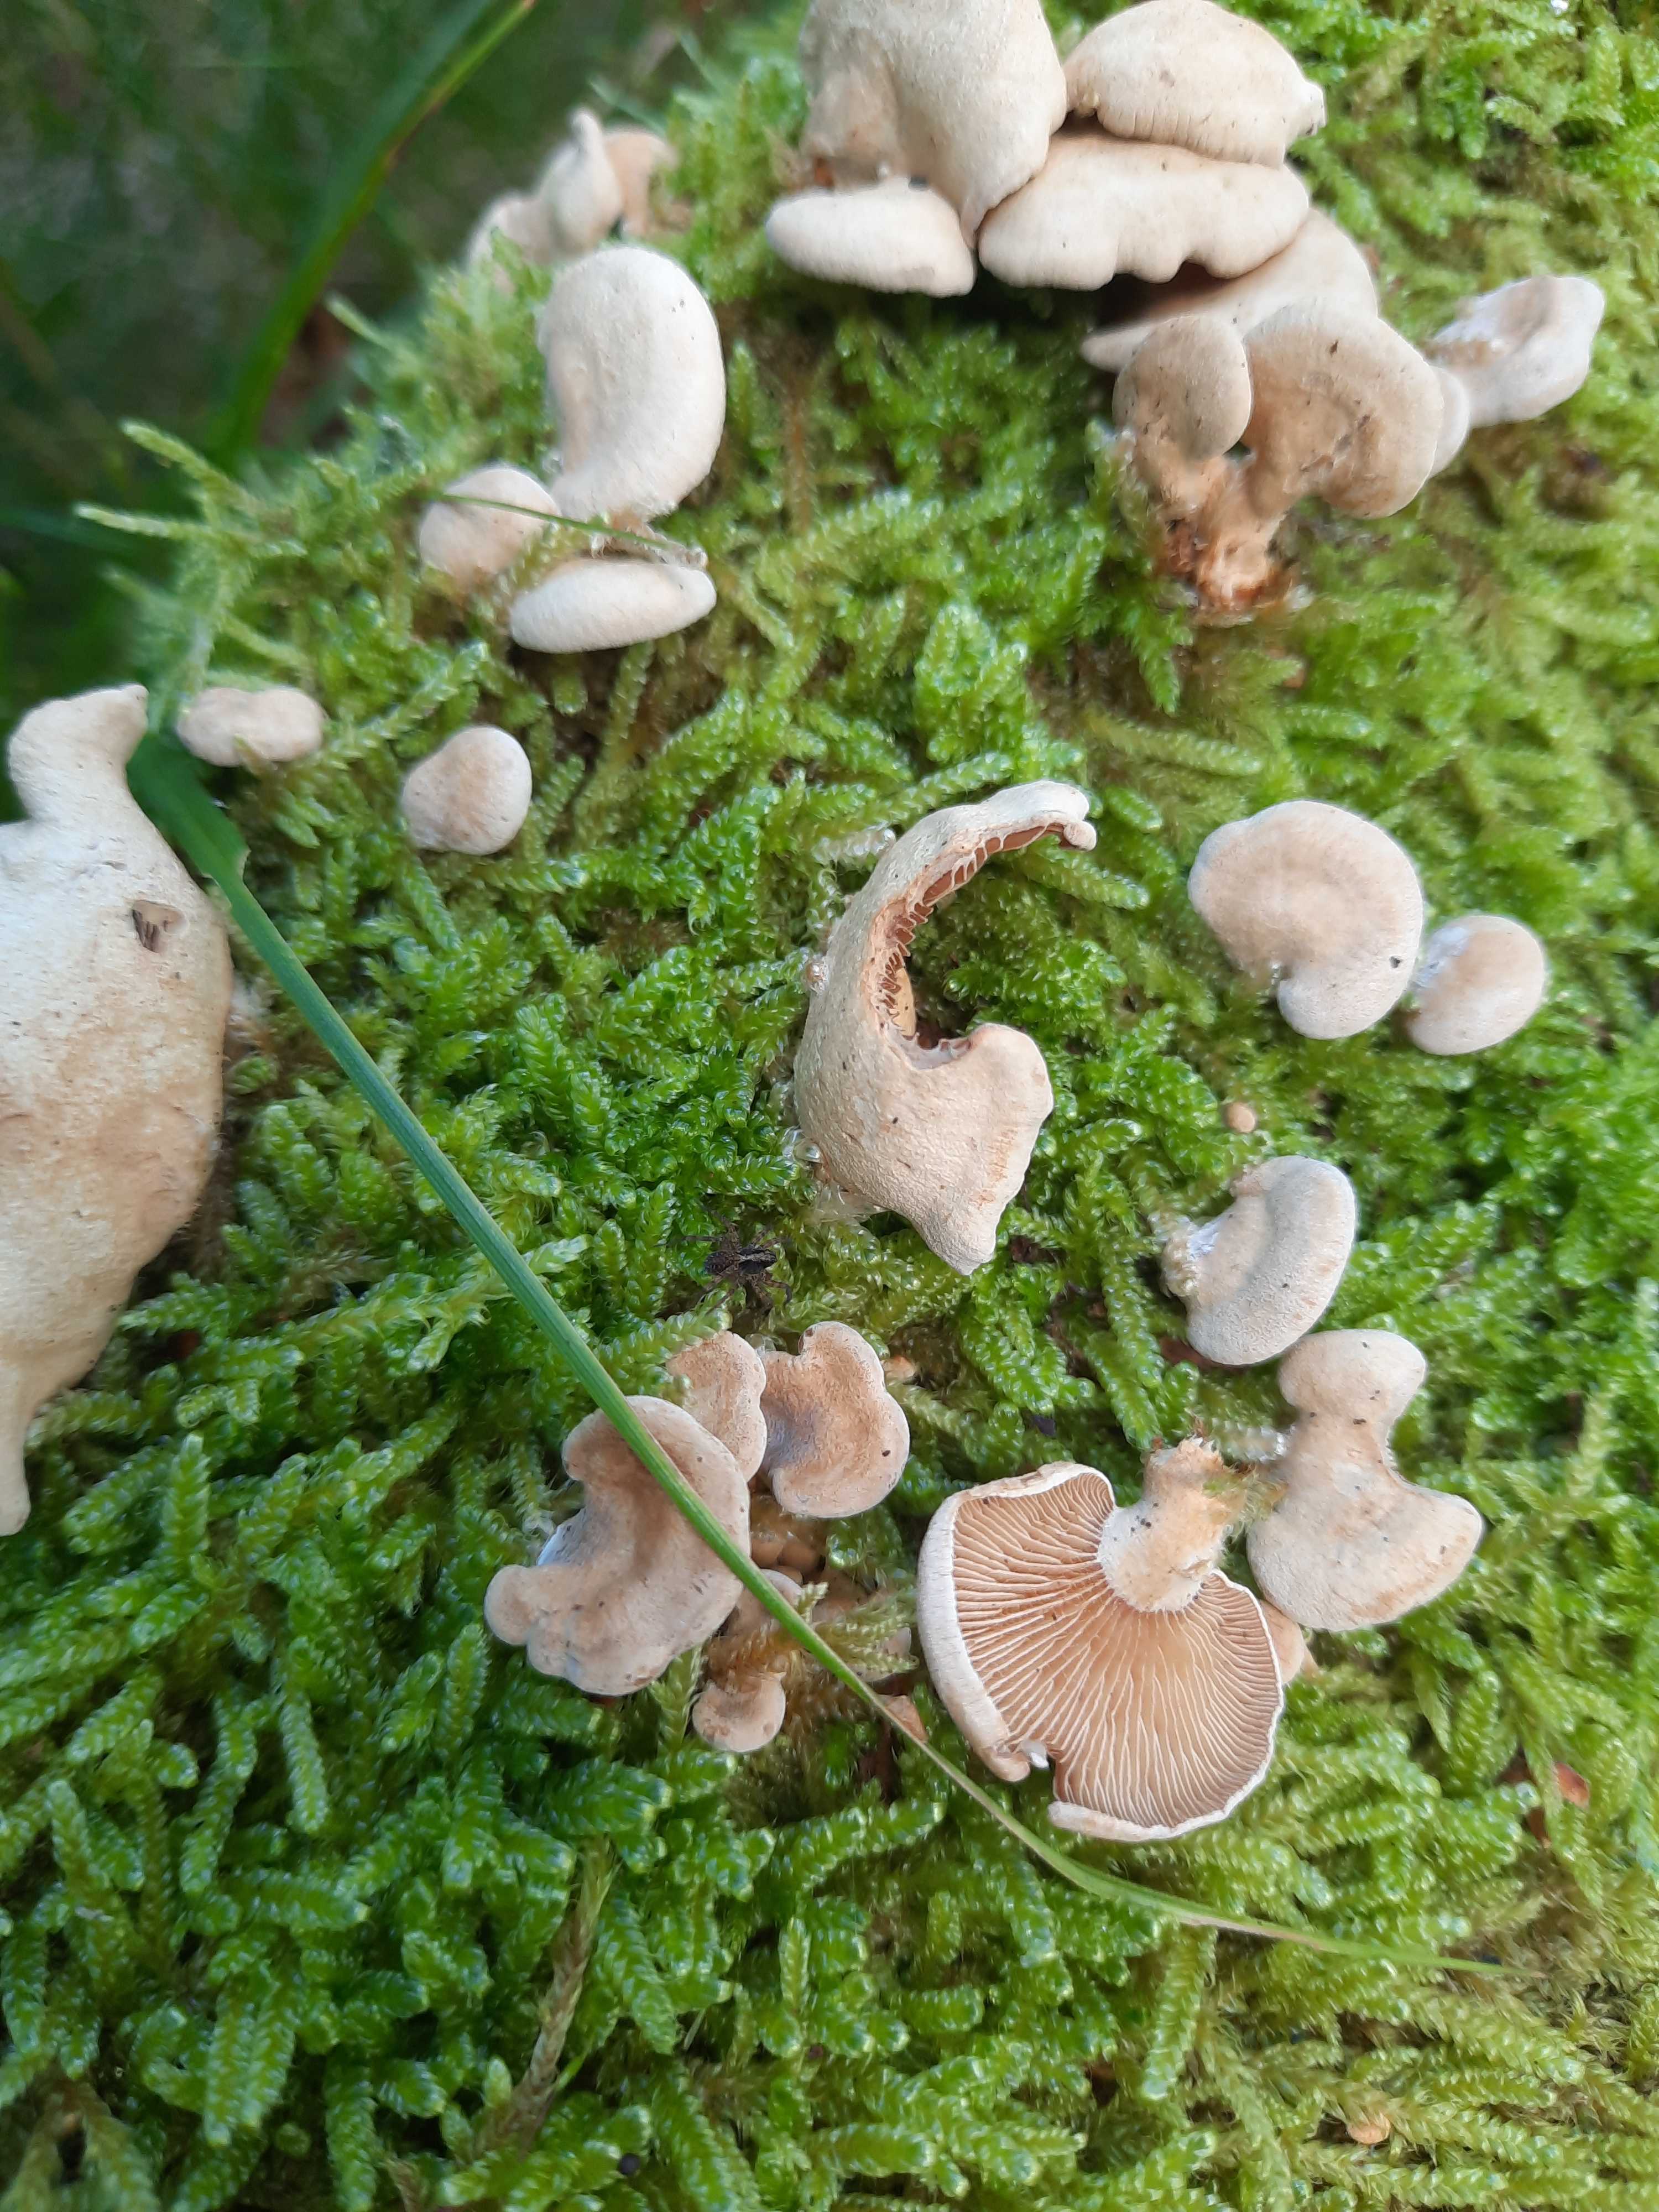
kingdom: Fungi
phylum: Basidiomycota
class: Agaricomycetes
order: Agaricales
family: Mycenaceae
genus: Panellus
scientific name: Panellus stipticus
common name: kliddet epaulethat
